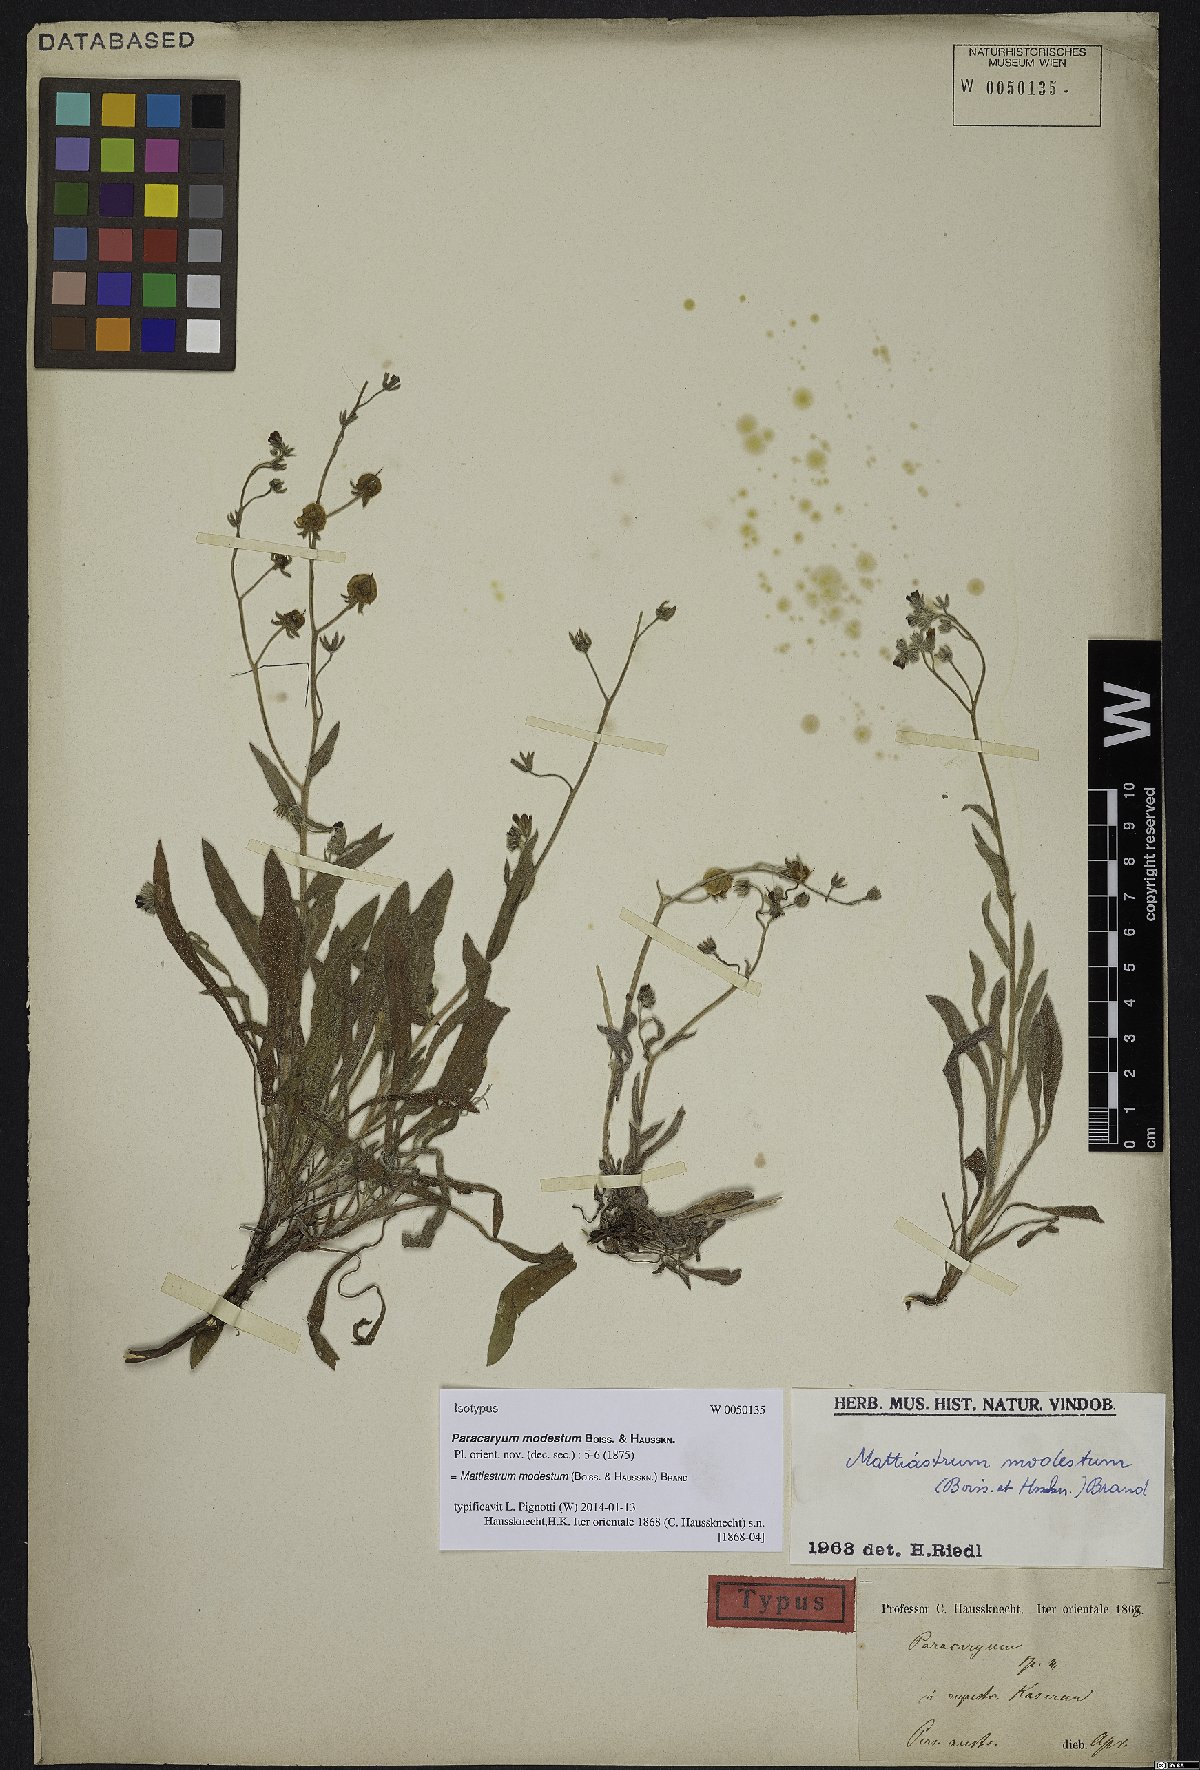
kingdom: Plantae
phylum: Tracheophyta
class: Magnoliopsida
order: Boraginales
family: Boraginaceae
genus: Paracaryum
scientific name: Paracaryum modestum
